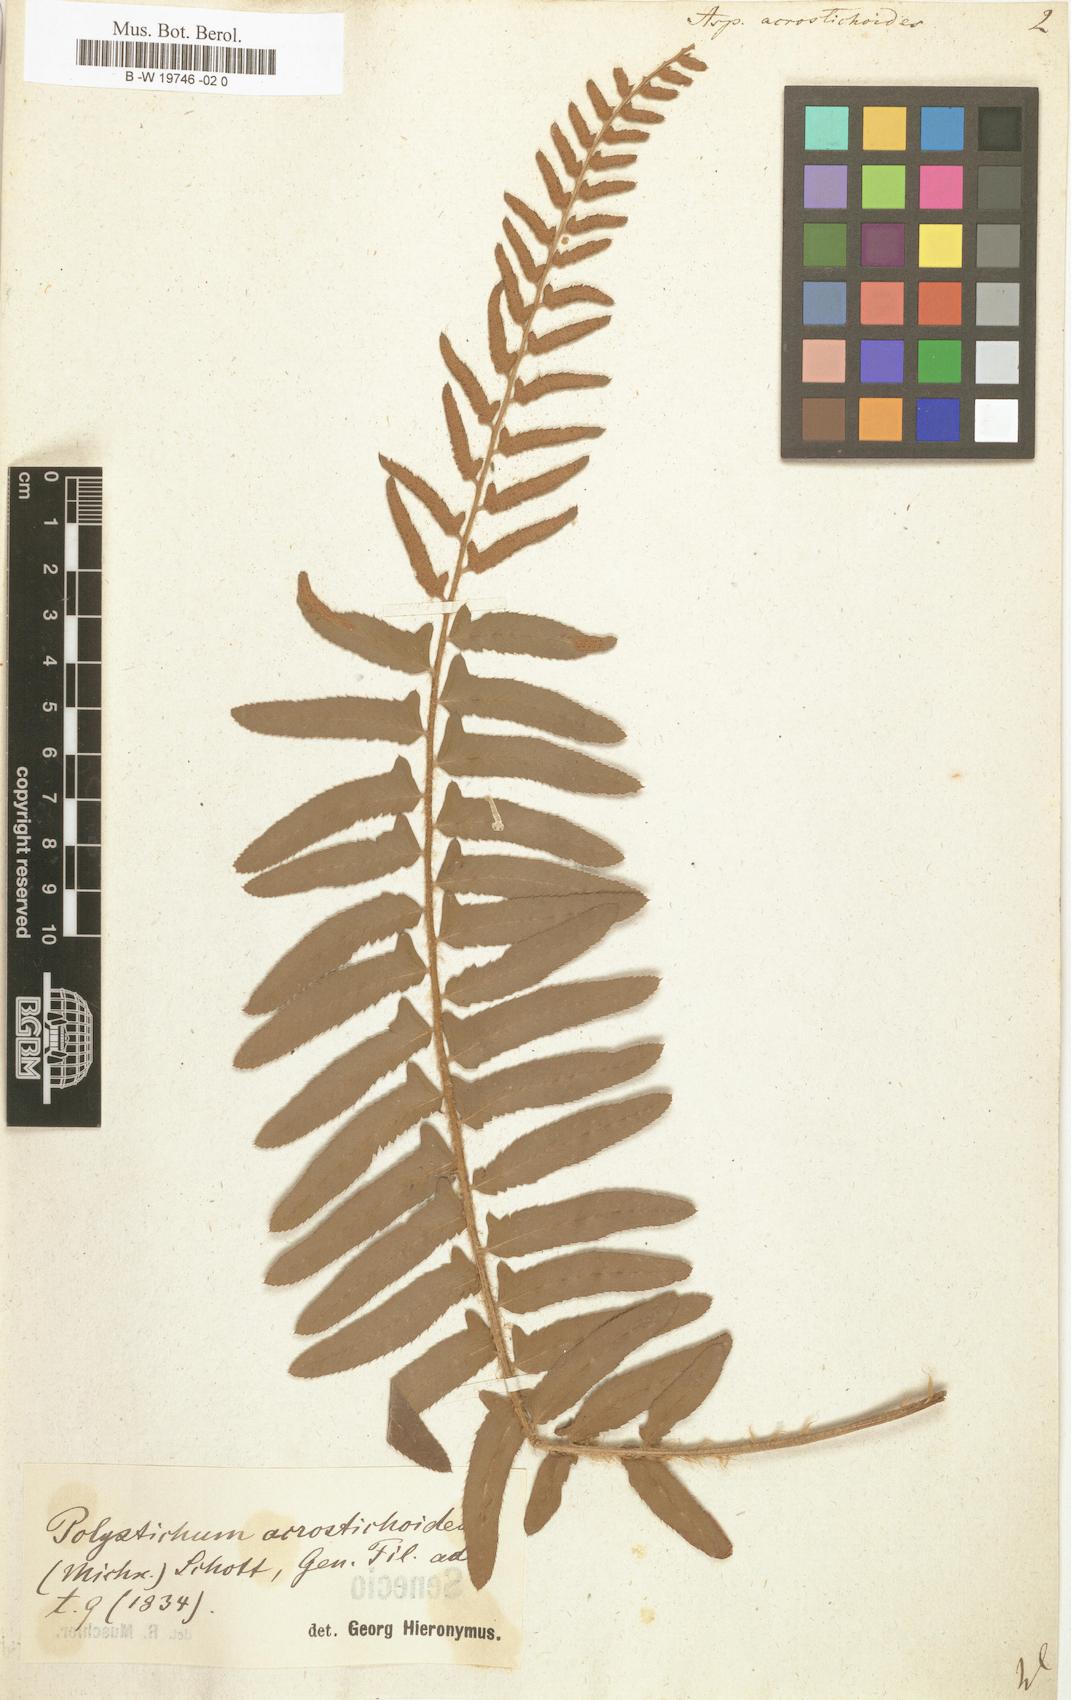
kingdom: Plantae
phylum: Tracheophyta
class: Polypodiopsida
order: Polypodiales
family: Dryopteridaceae
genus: Polystichum
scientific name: Polystichum acrostichoides
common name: Christmas fern
